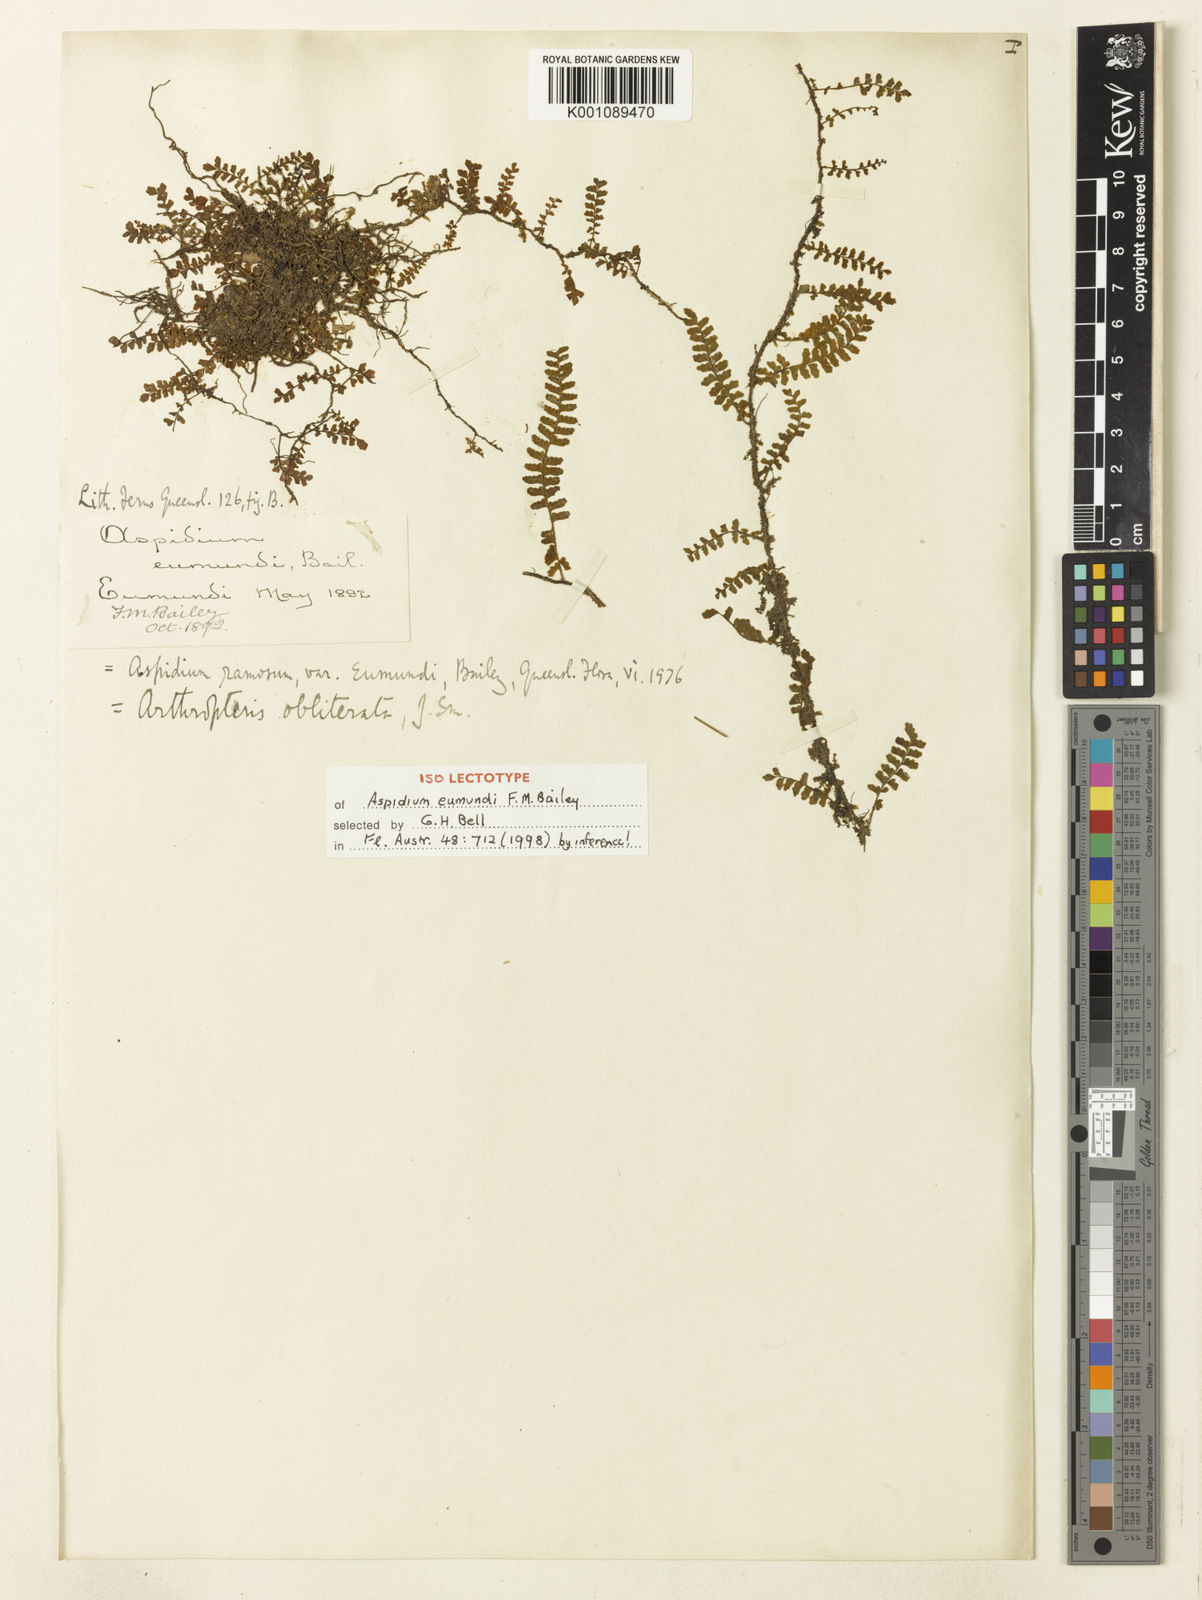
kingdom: Plantae
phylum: Tracheophyta
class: Polypodiopsida
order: Polypodiales
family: Tectariaceae
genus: Arthropteris
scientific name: Arthropteris beckleri
